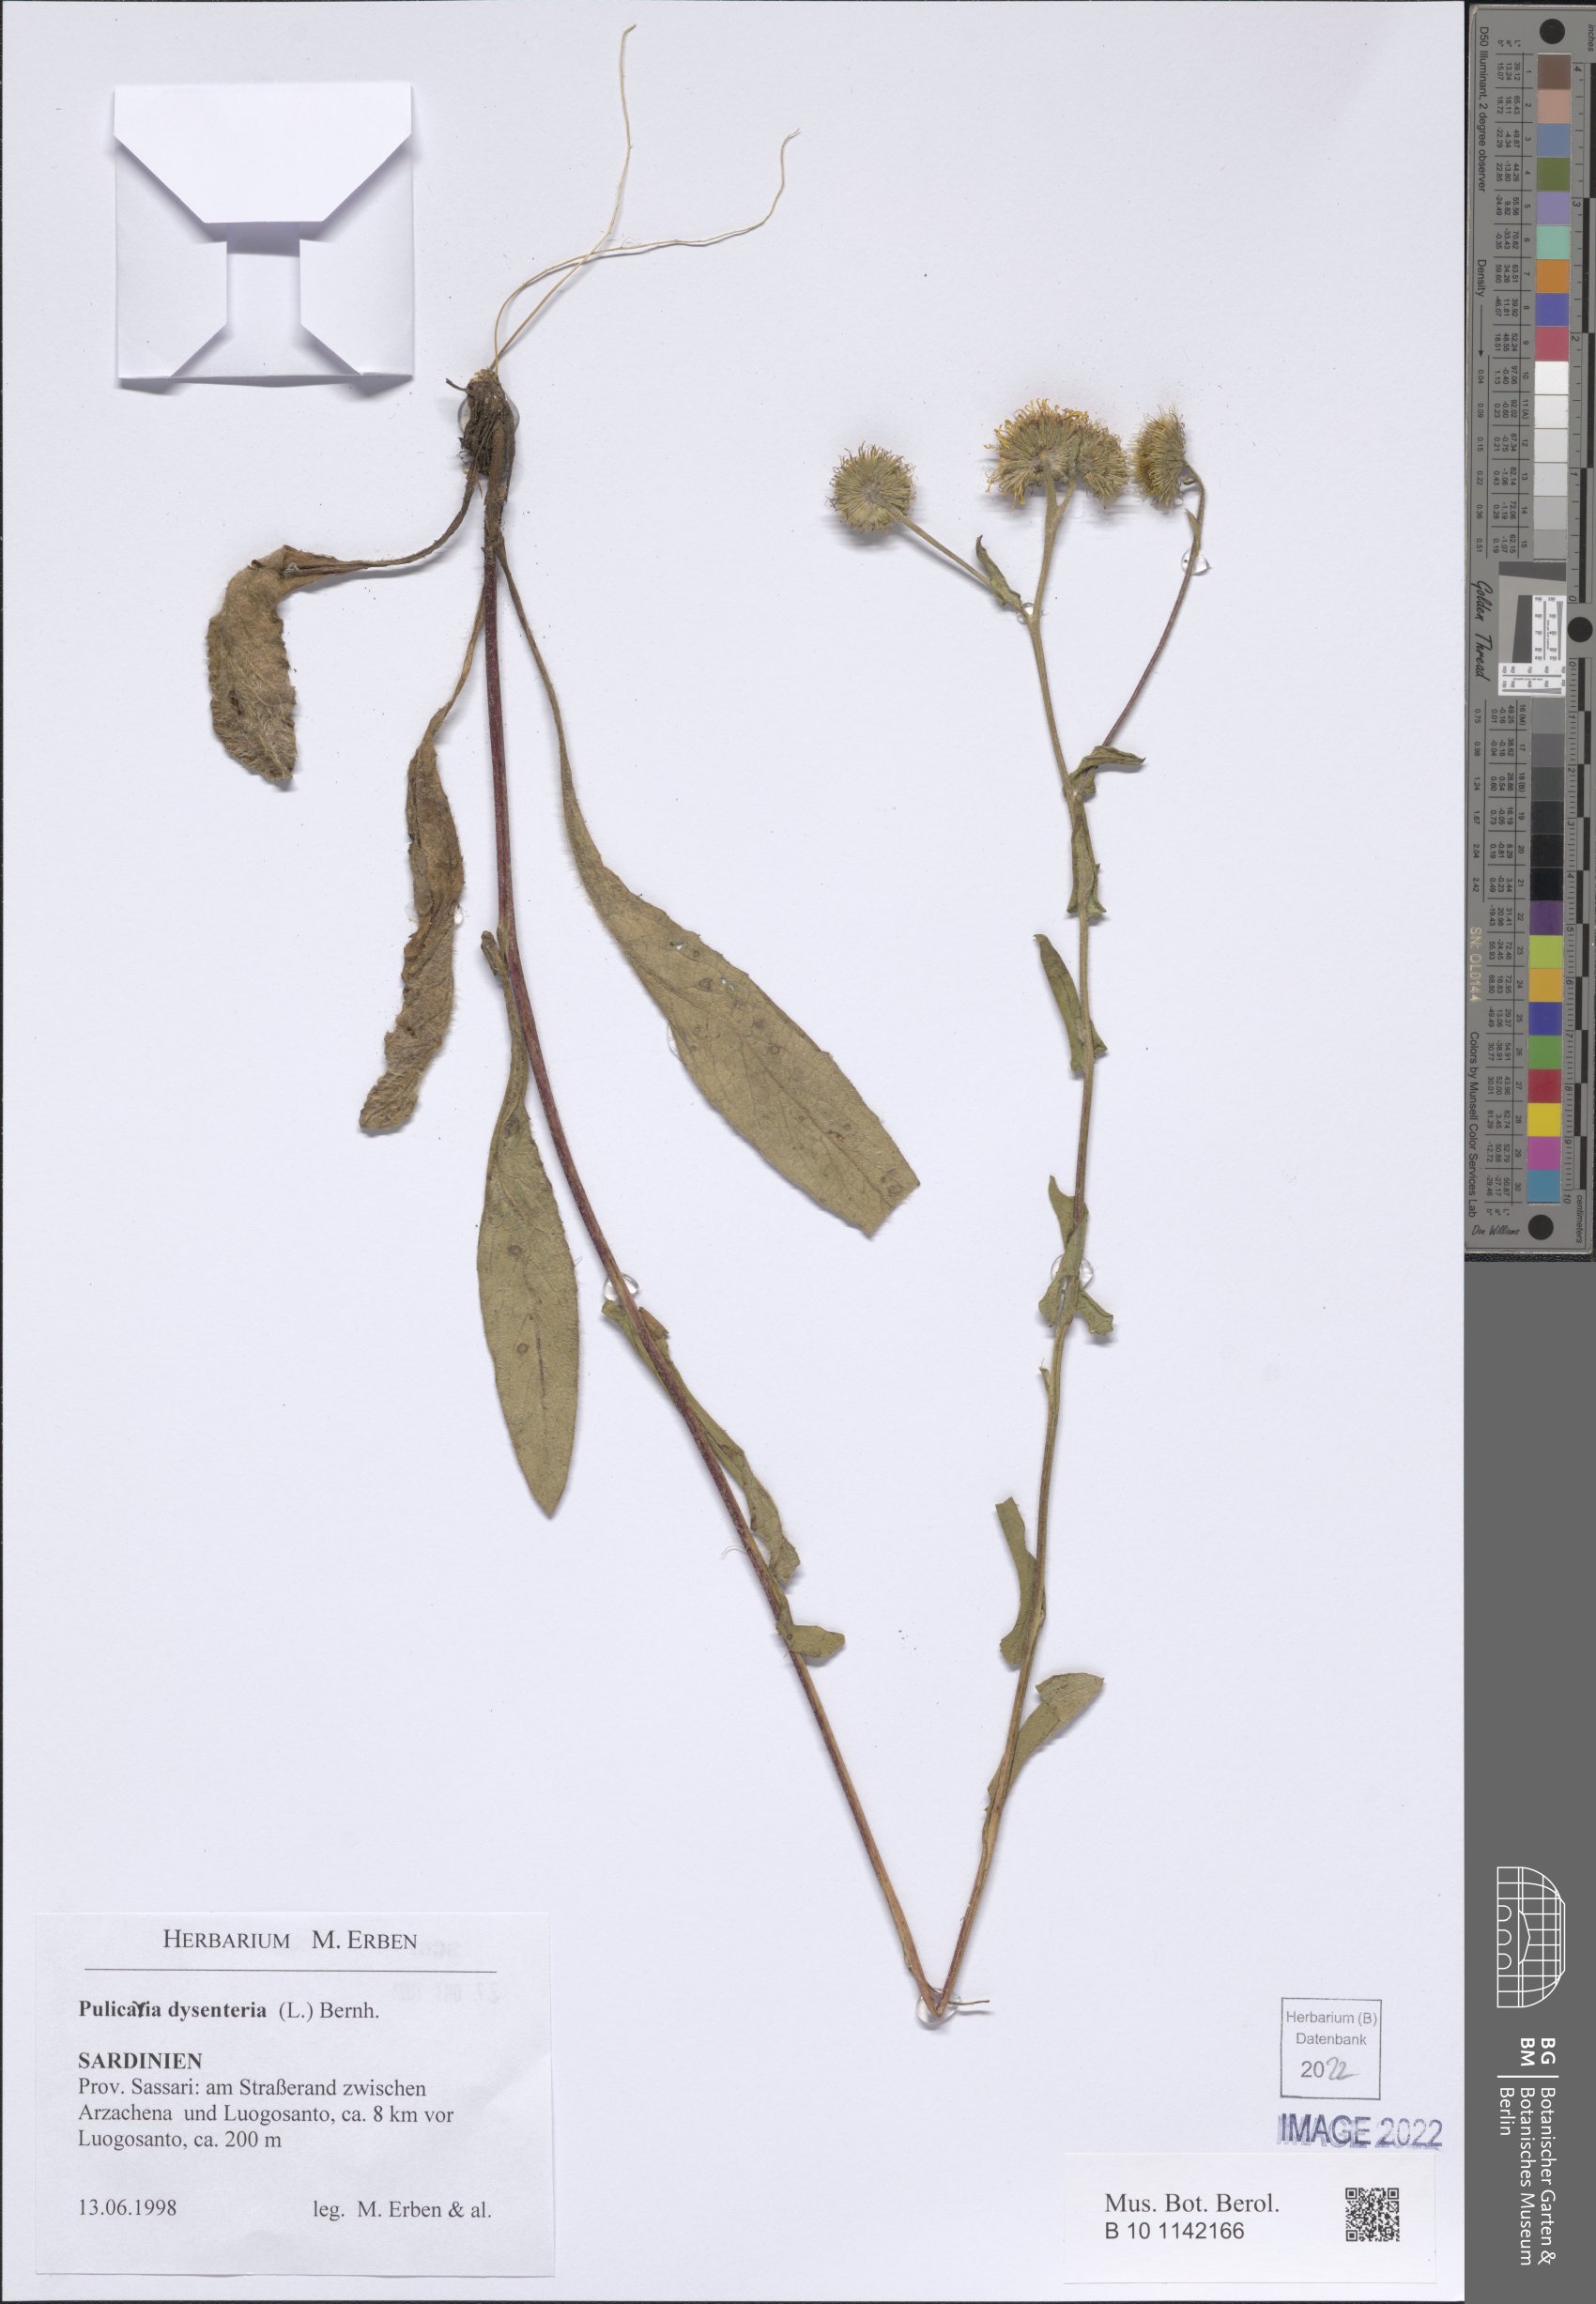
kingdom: Plantae
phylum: Tracheophyta
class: Magnoliopsida
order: Asterales
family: Asteraceae
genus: Pulicaria
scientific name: Pulicaria dysenterica
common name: Common fleabane
